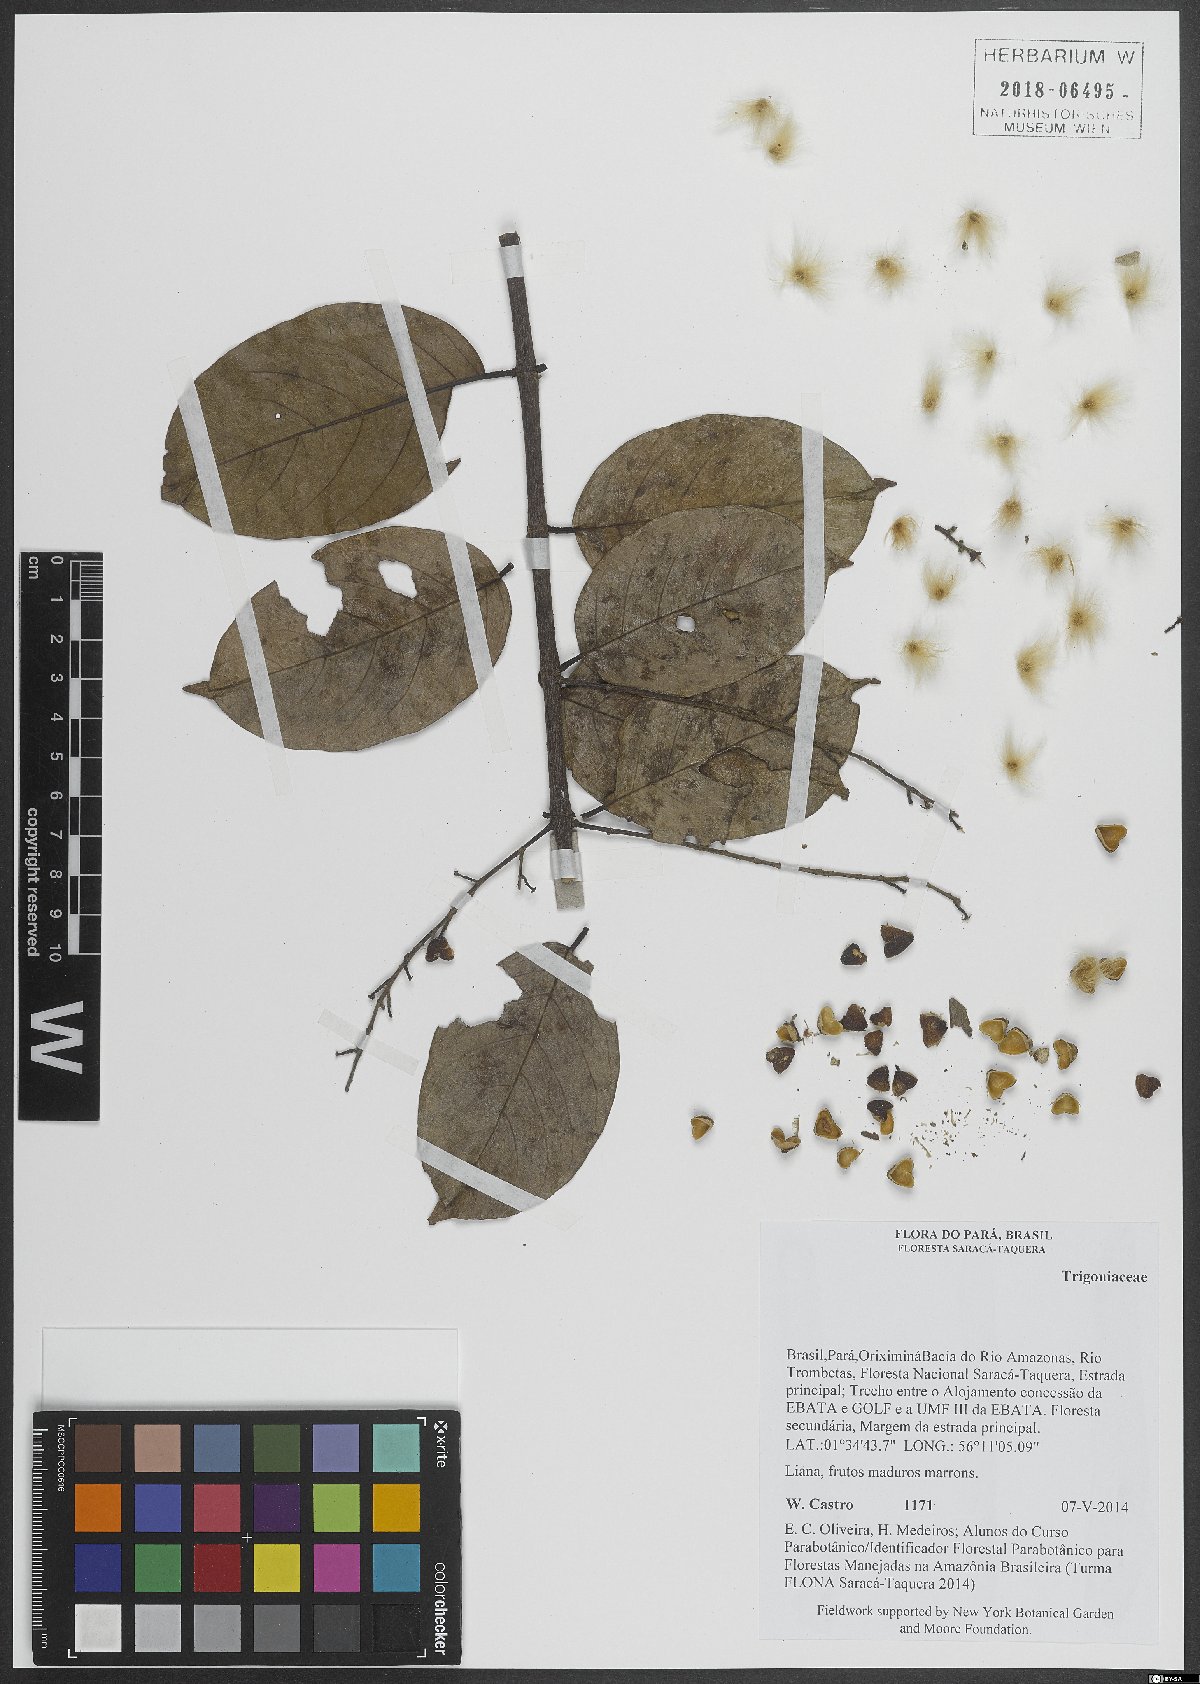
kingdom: Plantae
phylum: Tracheophyta
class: Magnoliopsida
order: Malpighiales
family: Trigoniaceae
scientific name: Trigoniaceae
